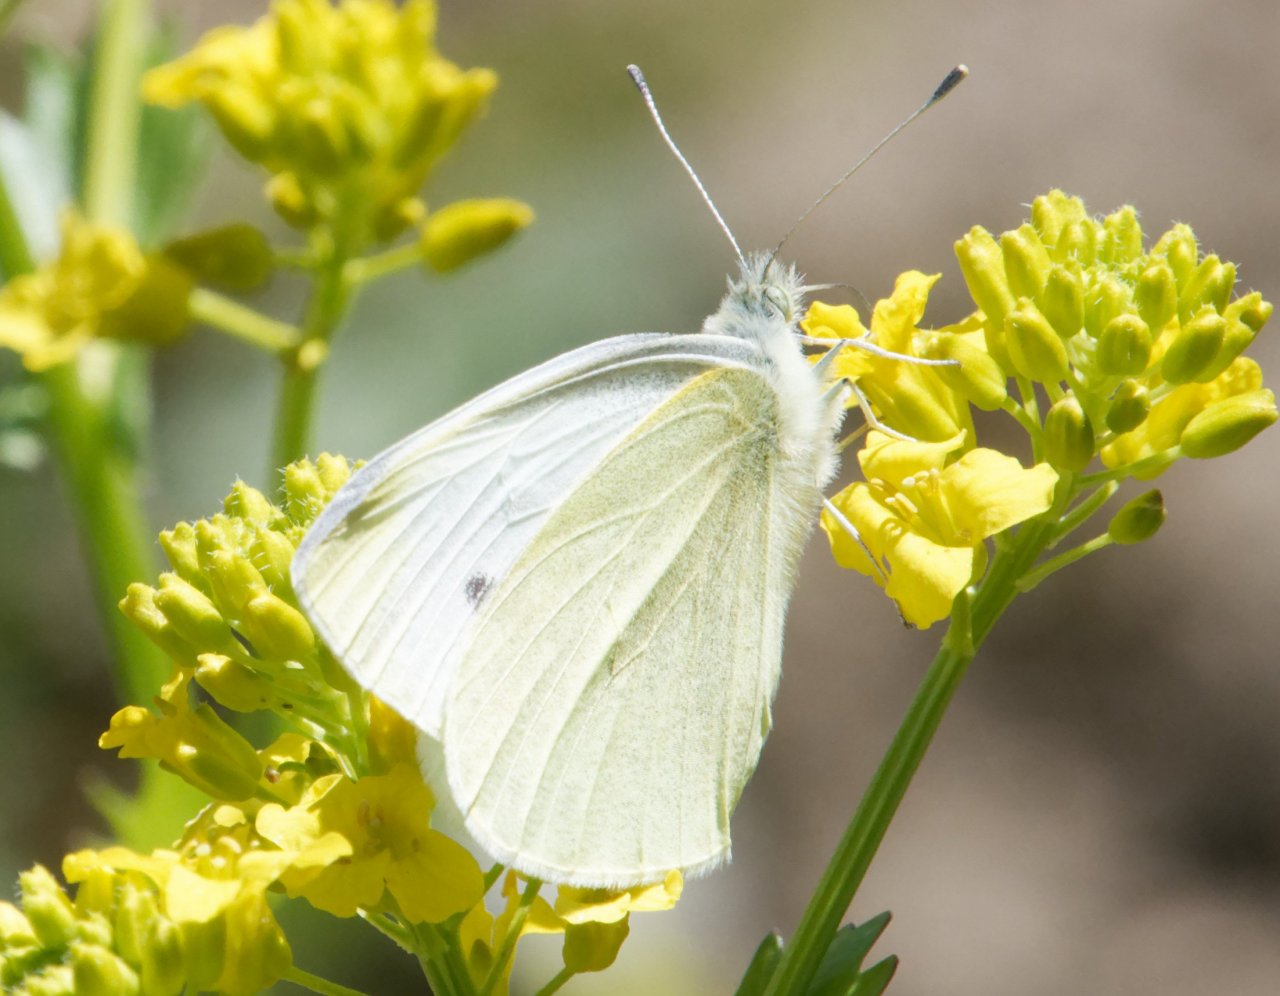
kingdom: Animalia
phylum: Arthropoda
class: Insecta
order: Lepidoptera
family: Pieridae
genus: Pieris
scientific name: Pieris rapae
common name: Cabbage White
